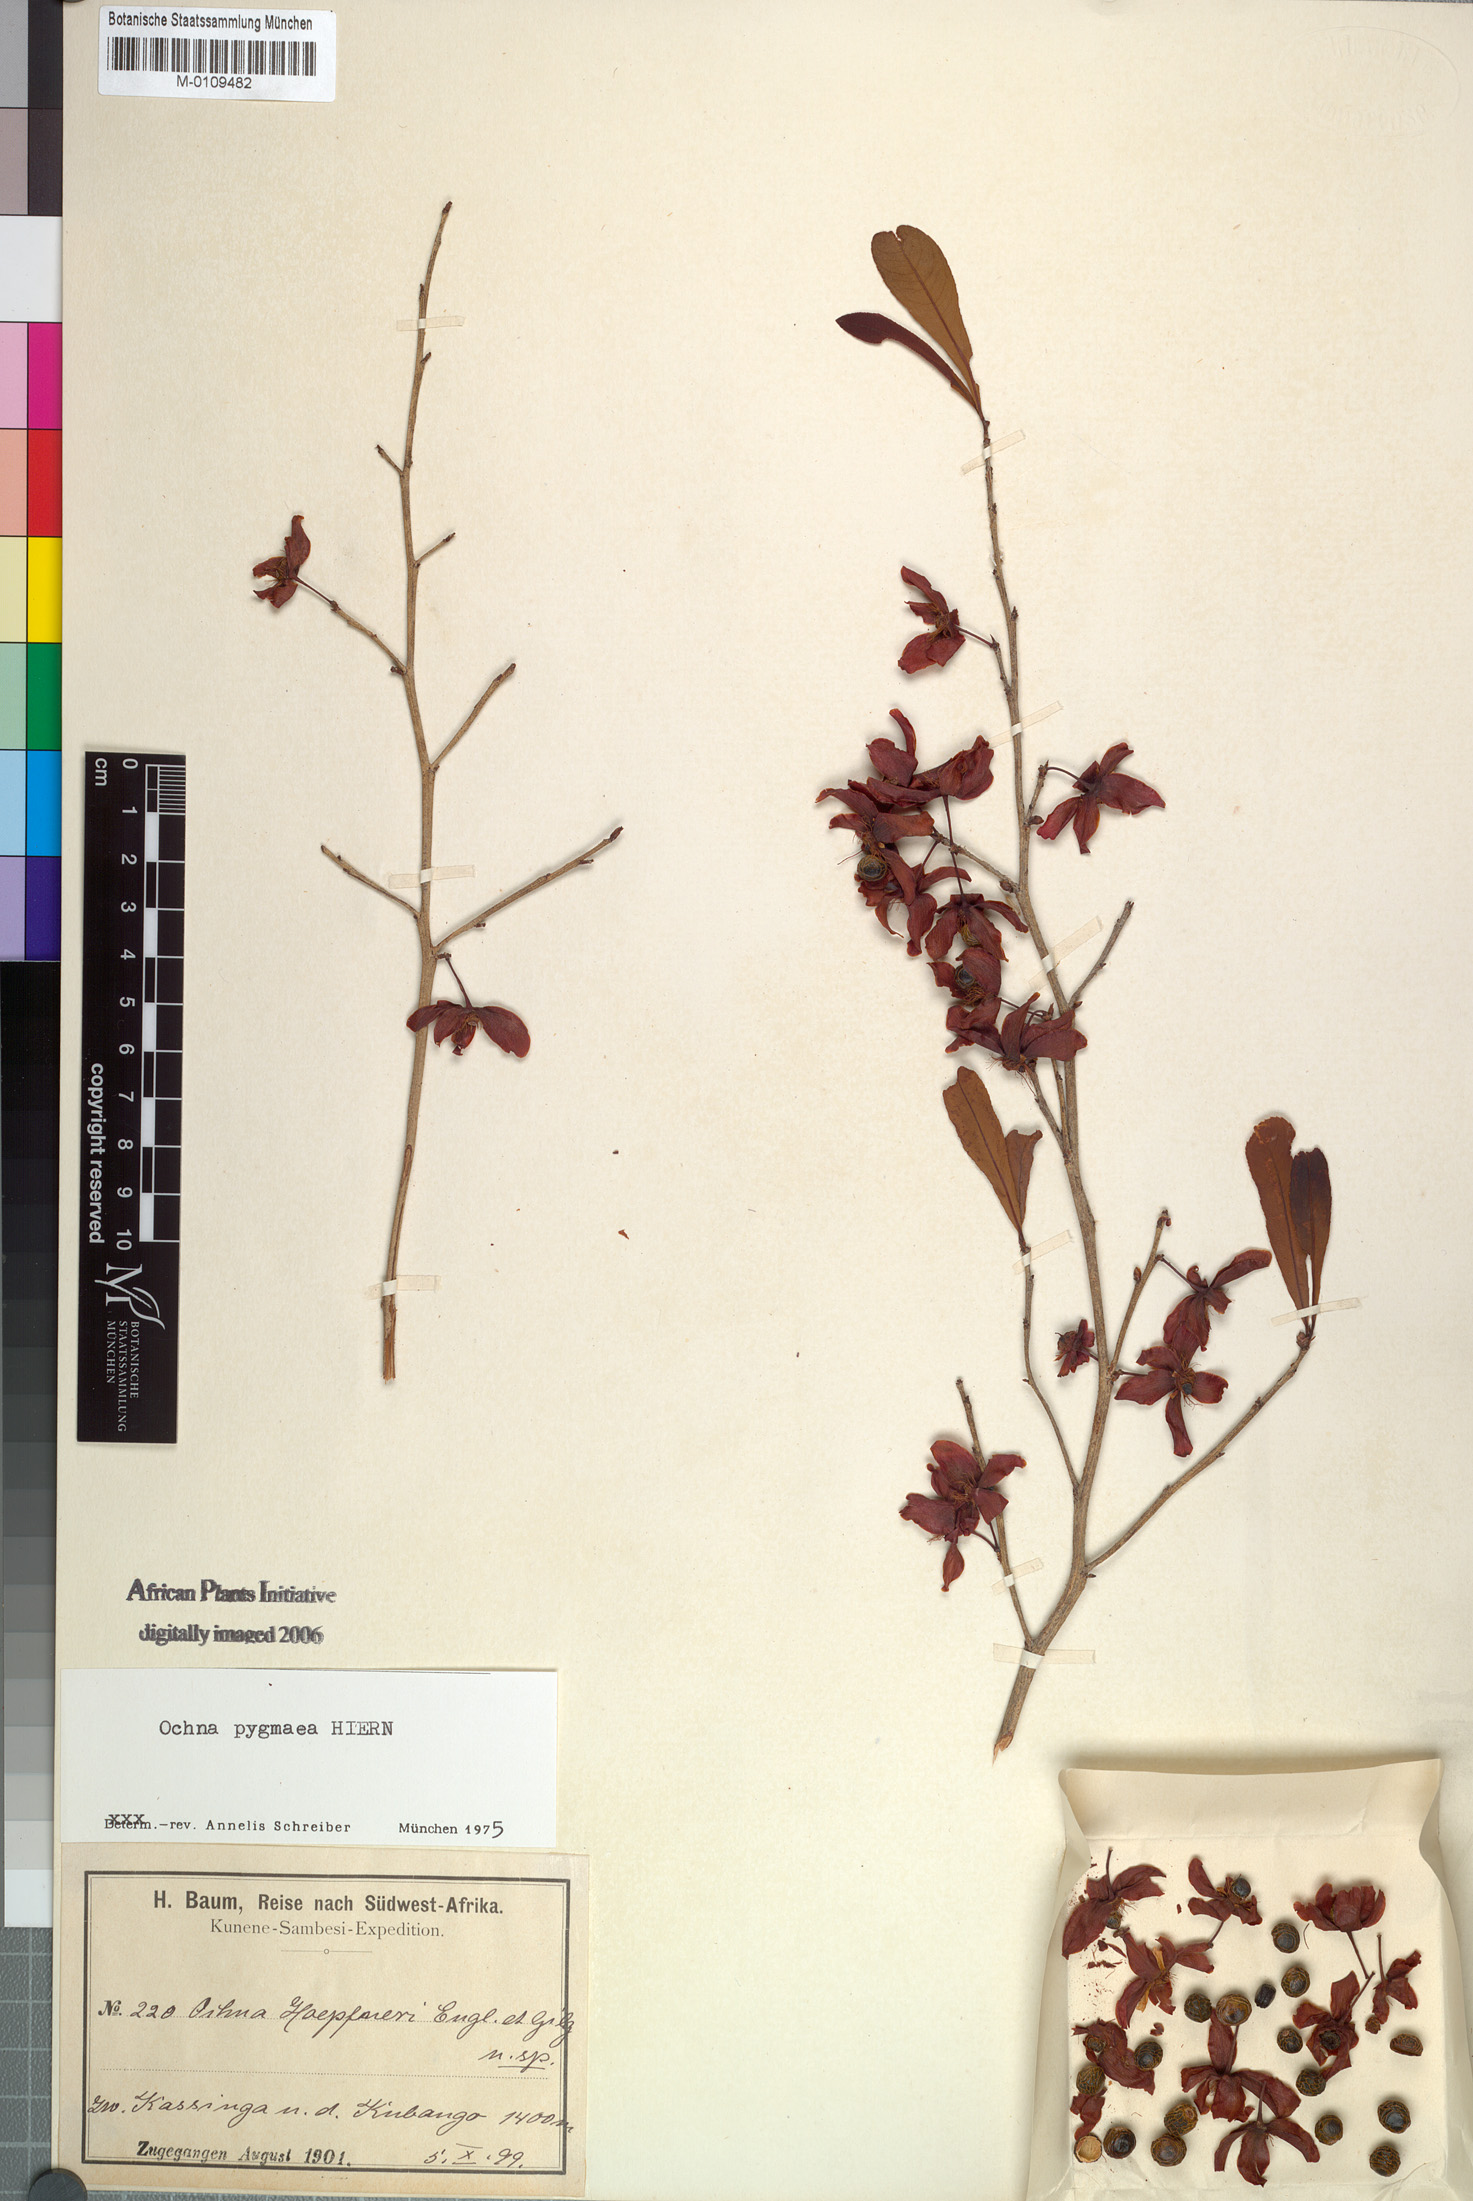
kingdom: Plantae
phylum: Tracheophyta
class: Magnoliopsida
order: Malpighiales
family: Ochnaceae
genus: Ochna
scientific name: Ochna pygmaea
